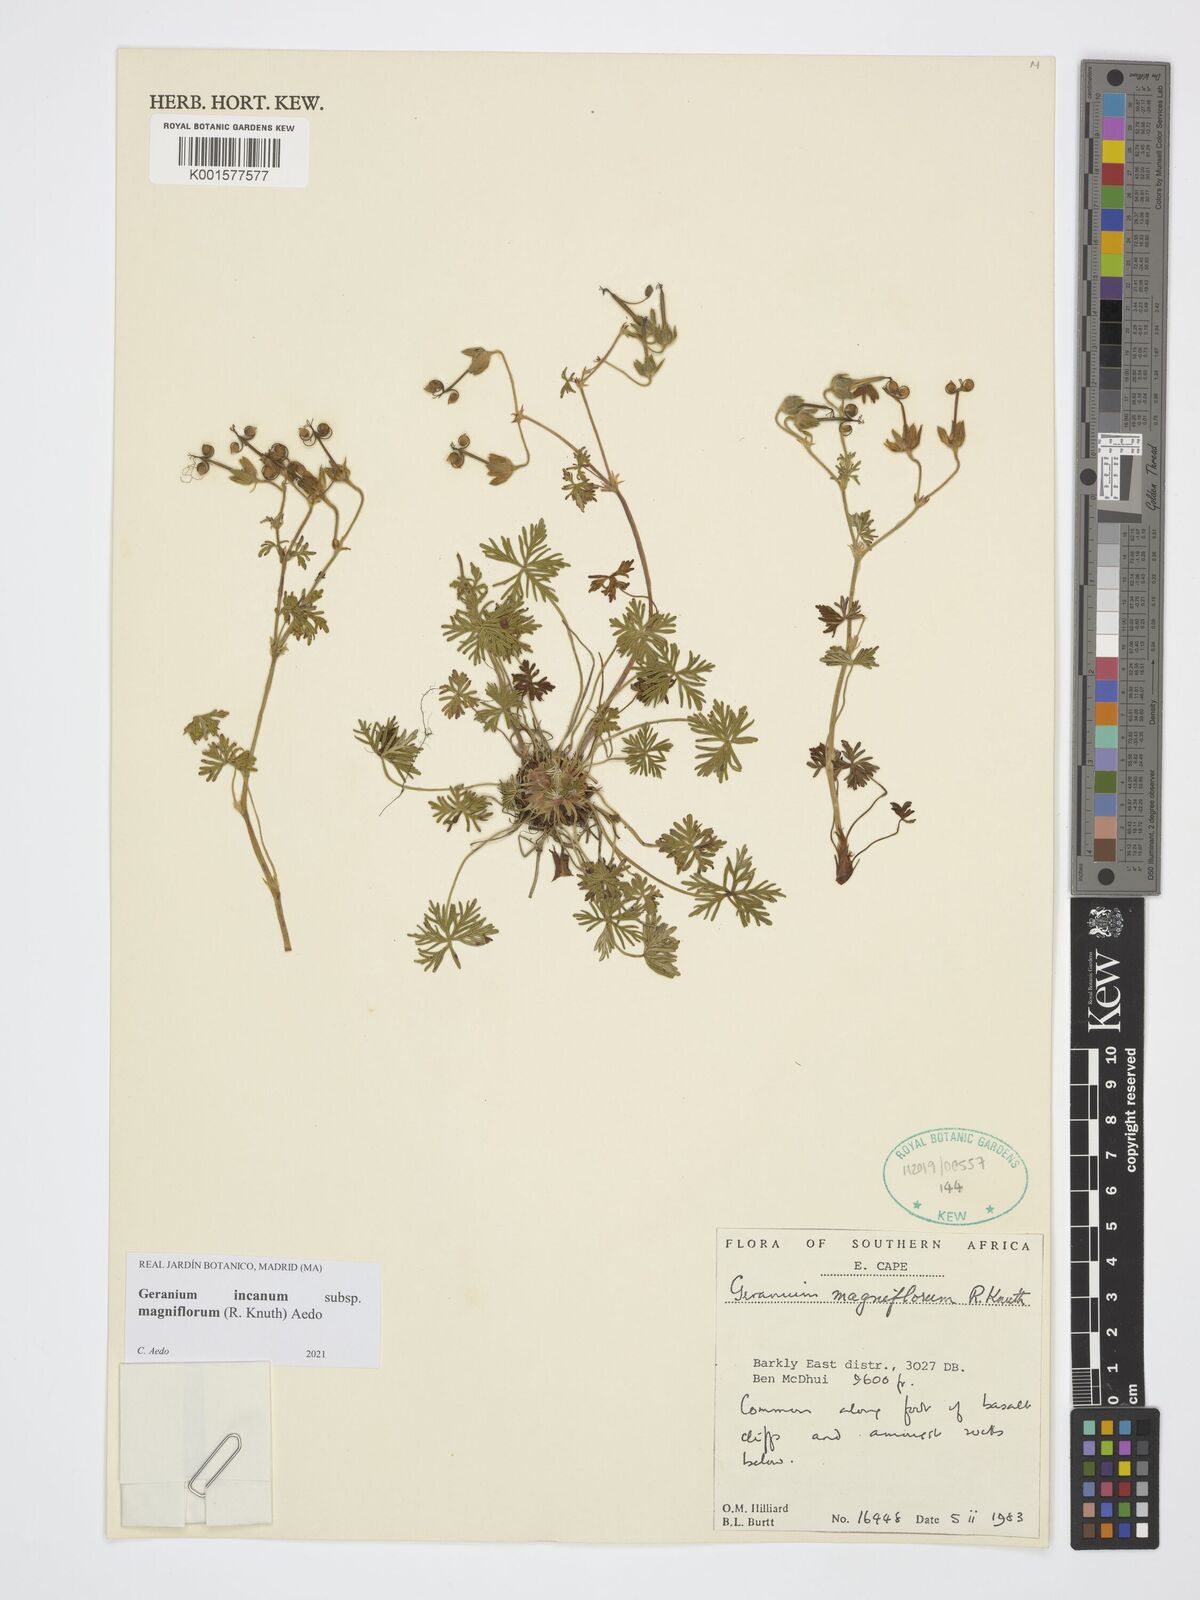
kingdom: Plantae
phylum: Tracheophyta
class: Magnoliopsida
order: Geraniales
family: Geraniaceae
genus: Geranium
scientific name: Geranium incanum
